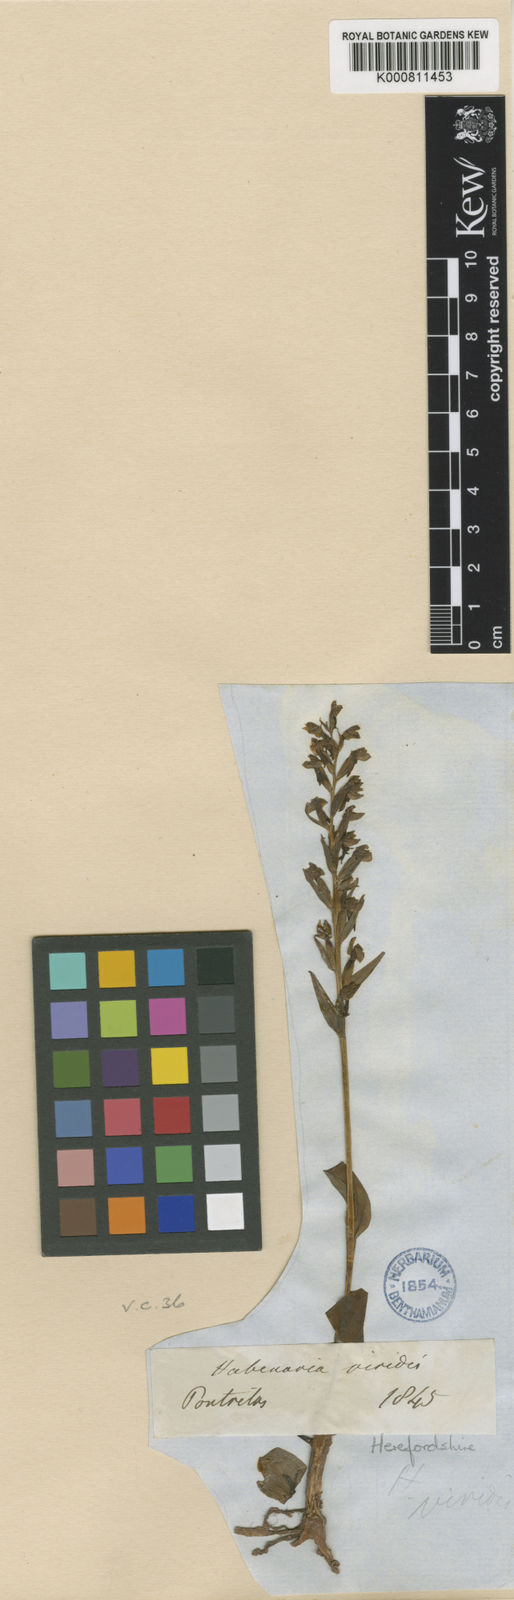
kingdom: Plantae
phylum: Tracheophyta
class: Liliopsida
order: Asparagales
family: Orchidaceae
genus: Dactylorhiza
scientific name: Dactylorhiza viridis
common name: Longbract frog orchid
